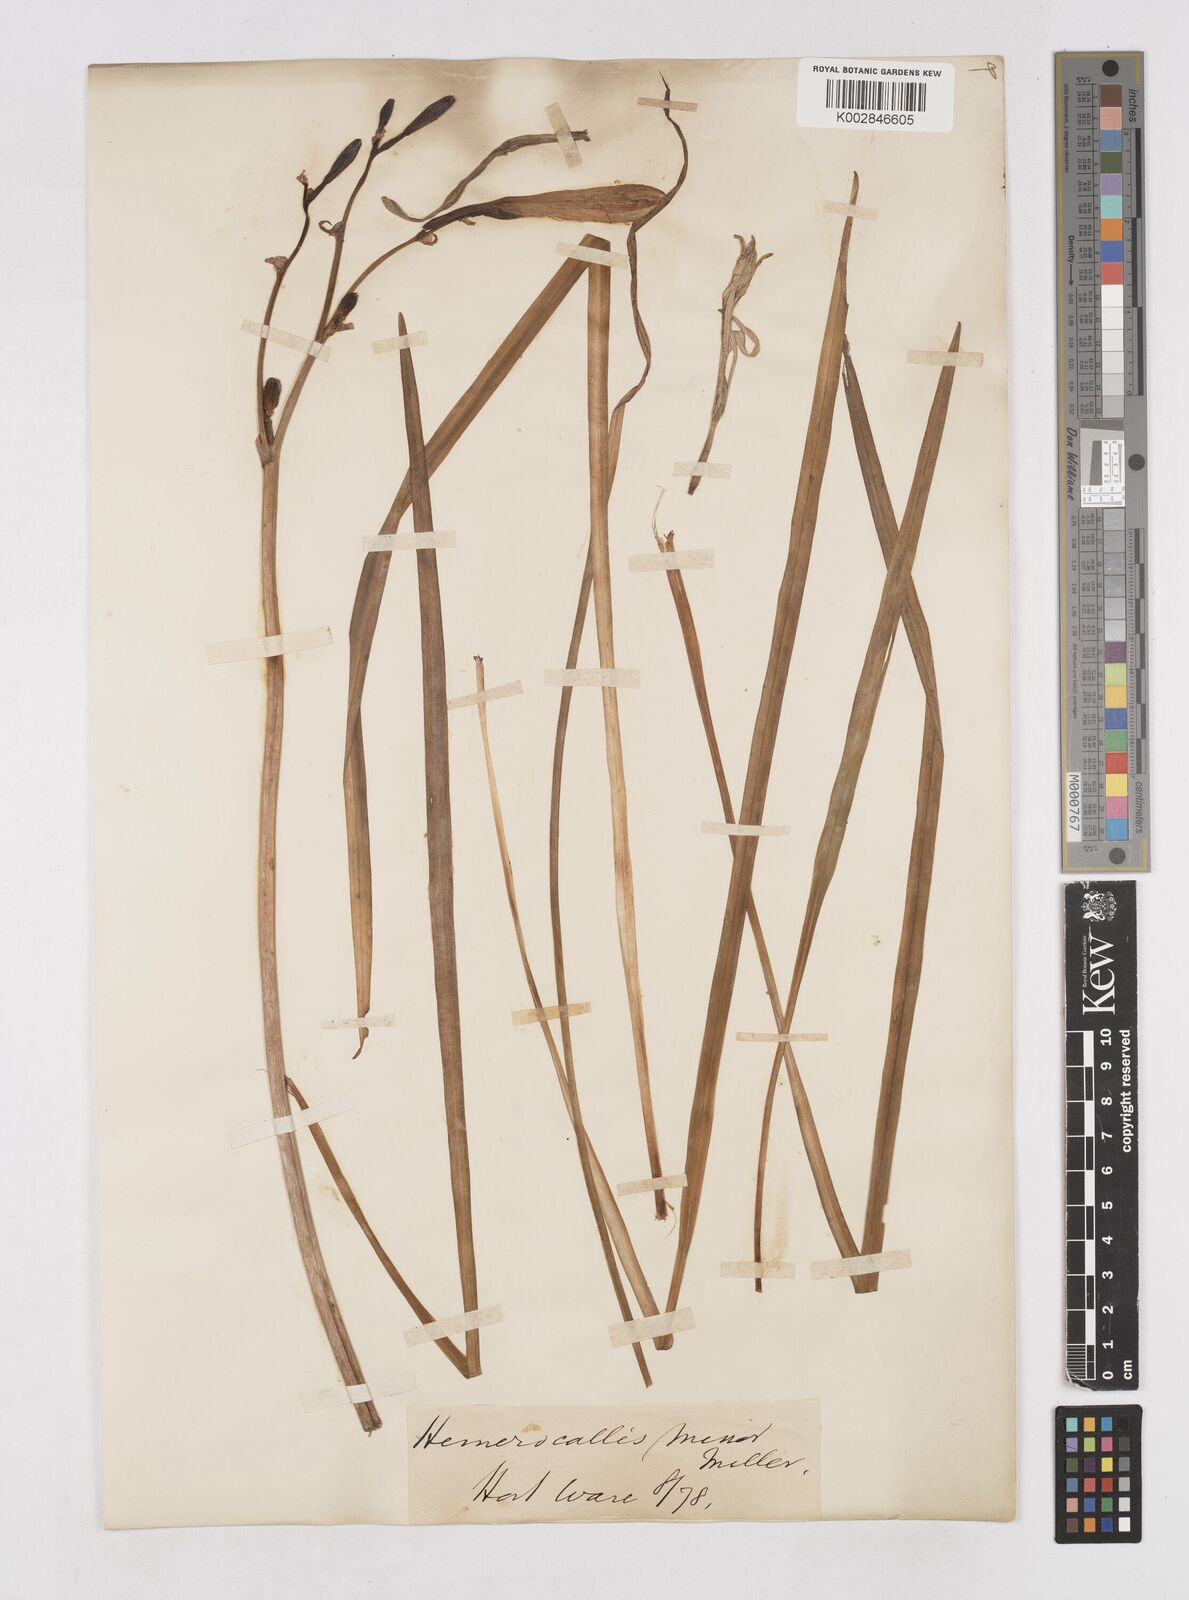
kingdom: Plantae
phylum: Tracheophyta
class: Liliopsida
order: Asparagales
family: Asphodelaceae
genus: Hemerocallis
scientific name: Hemerocallis minor
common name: Small daylily
